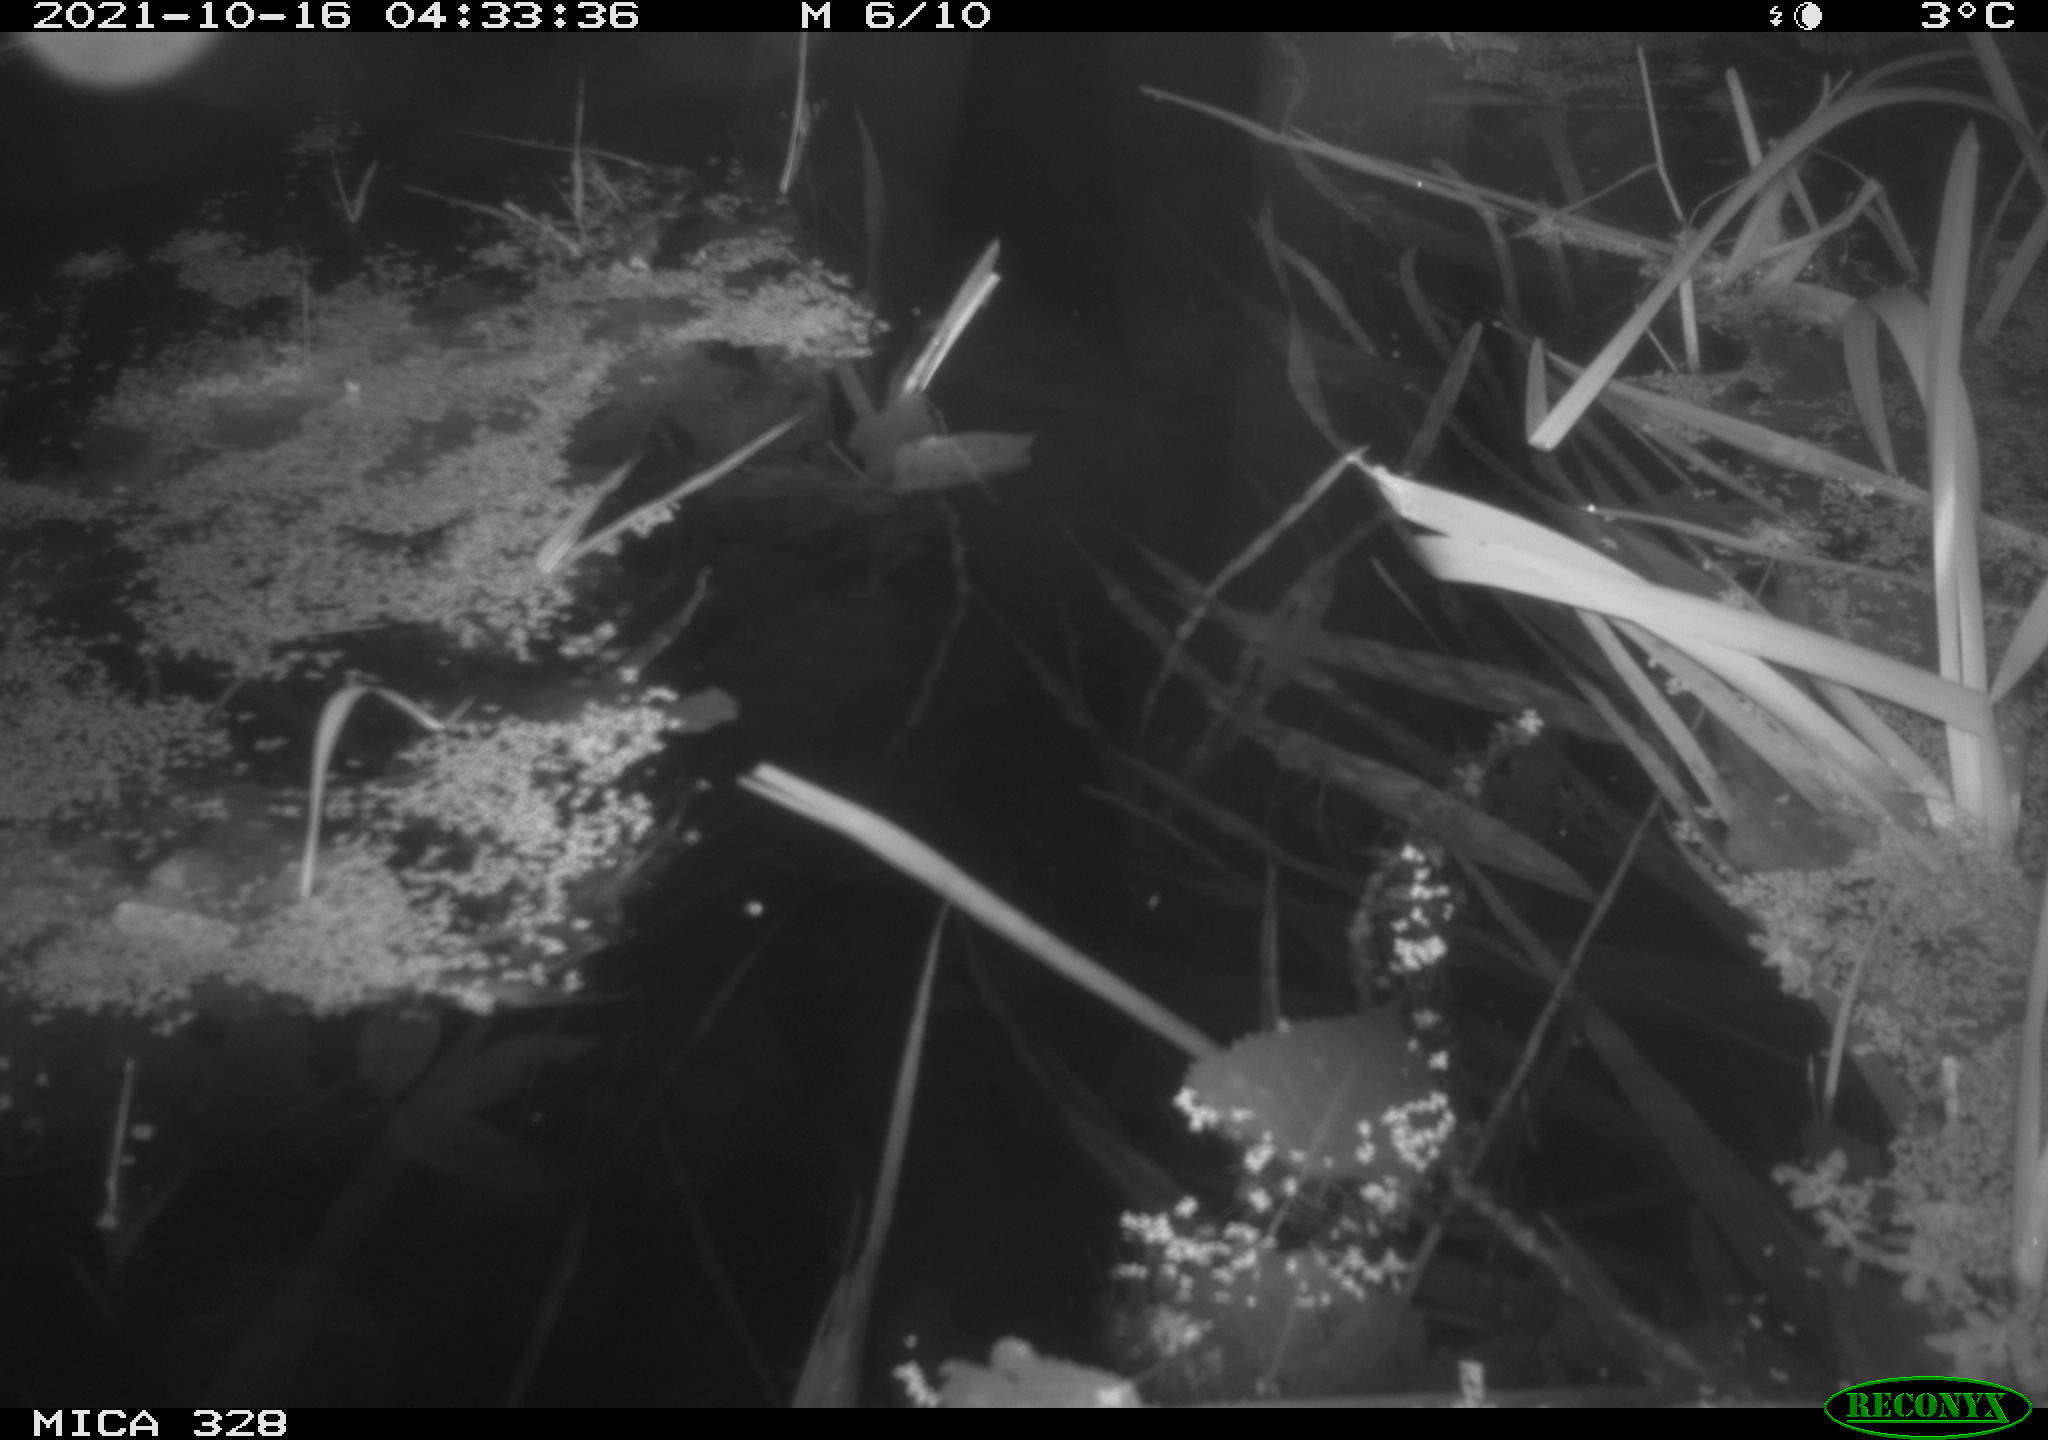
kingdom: Animalia
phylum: Chordata
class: Mammalia
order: Rodentia
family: Cricetidae
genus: Ondatra
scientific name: Ondatra zibethicus
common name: Muskrat
